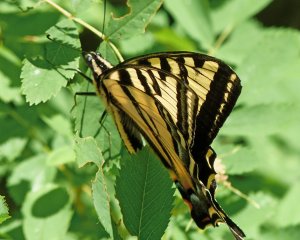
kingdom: Animalia
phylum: Arthropoda
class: Insecta
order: Lepidoptera
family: Papilionidae
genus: Pterourus
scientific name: Pterourus rutulus
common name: Western Tiger Swallowtail
